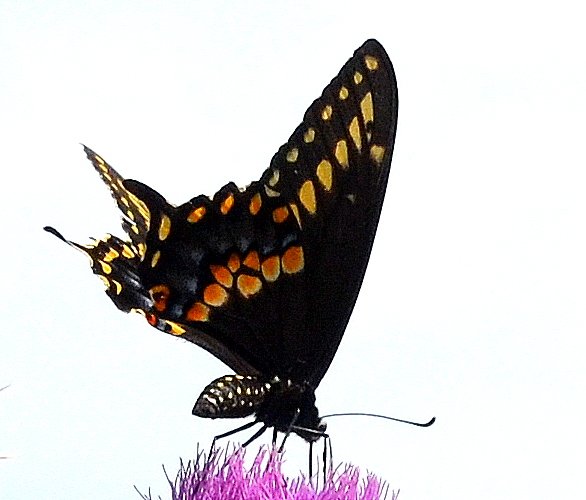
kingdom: Animalia
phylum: Arthropoda
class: Insecta
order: Lepidoptera
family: Papilionidae
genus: Papilio
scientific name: Papilio polyxenes
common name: Black Swallowtail
